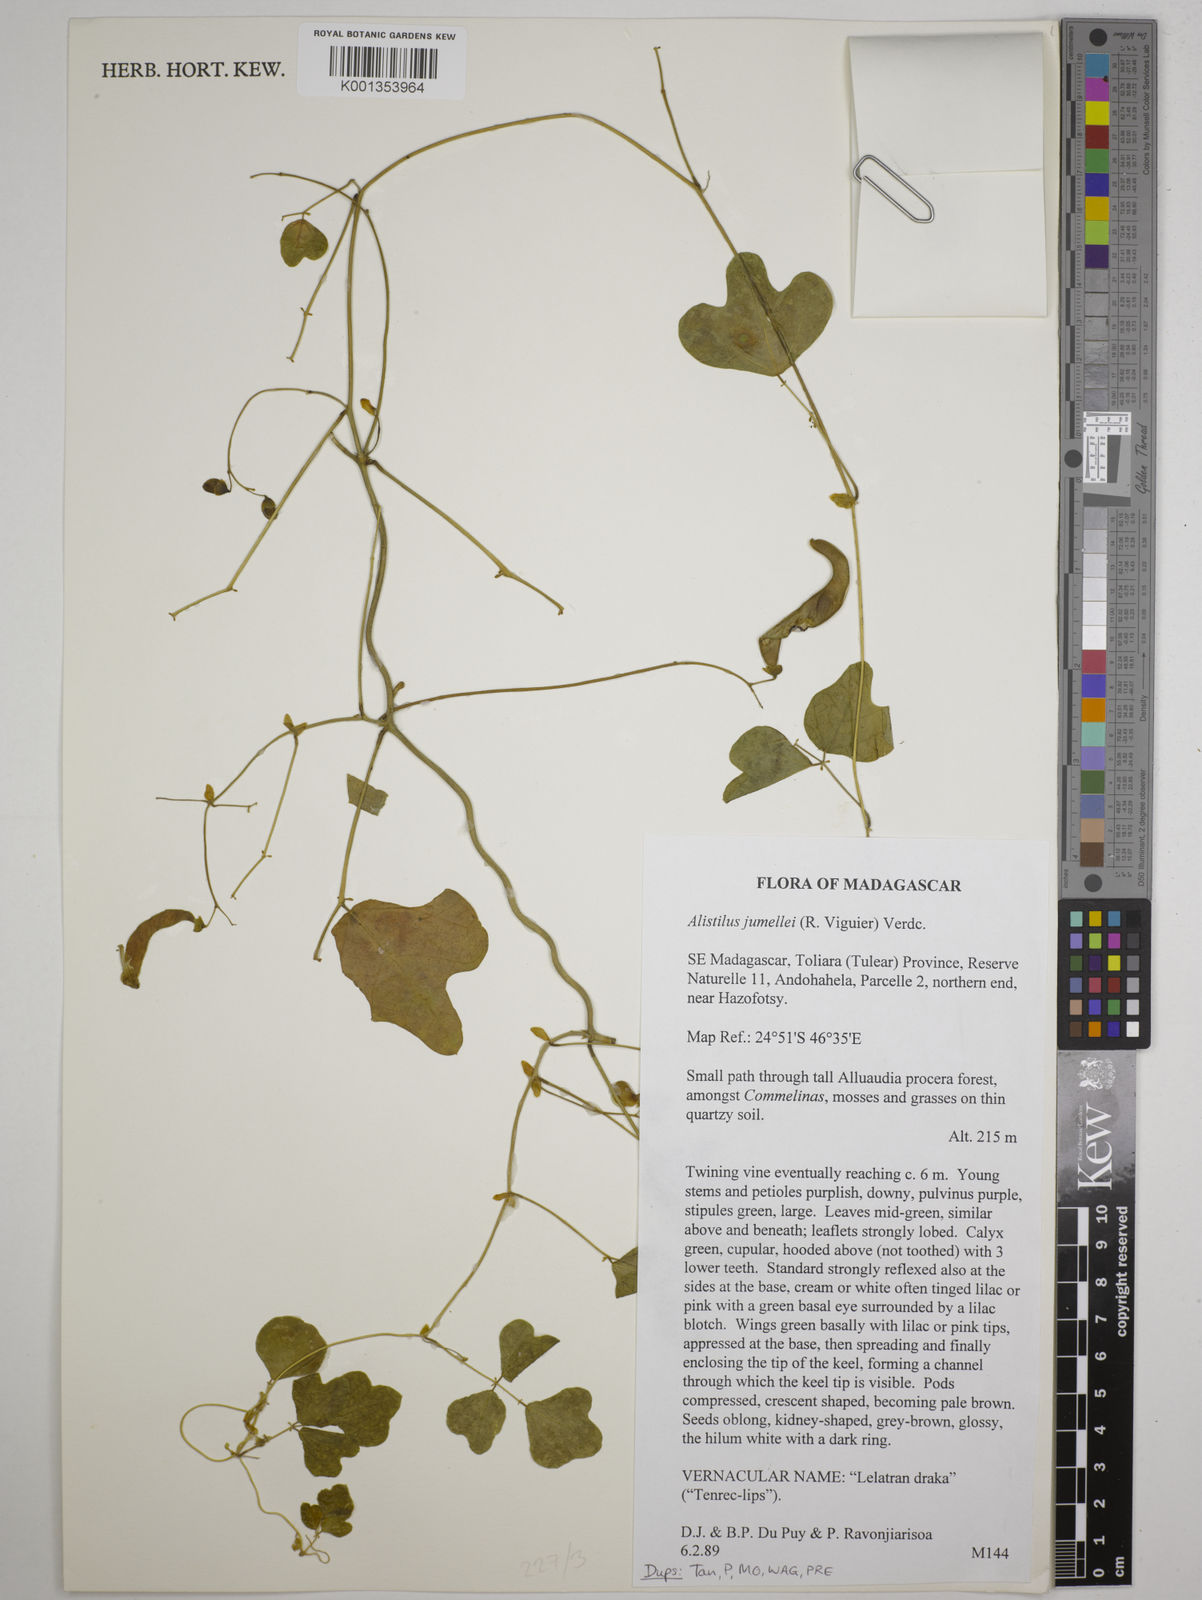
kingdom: Plantae
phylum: Tracheophyta
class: Magnoliopsida
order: Fabales
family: Fabaceae
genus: Alistilus
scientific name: Alistilus jumellei
